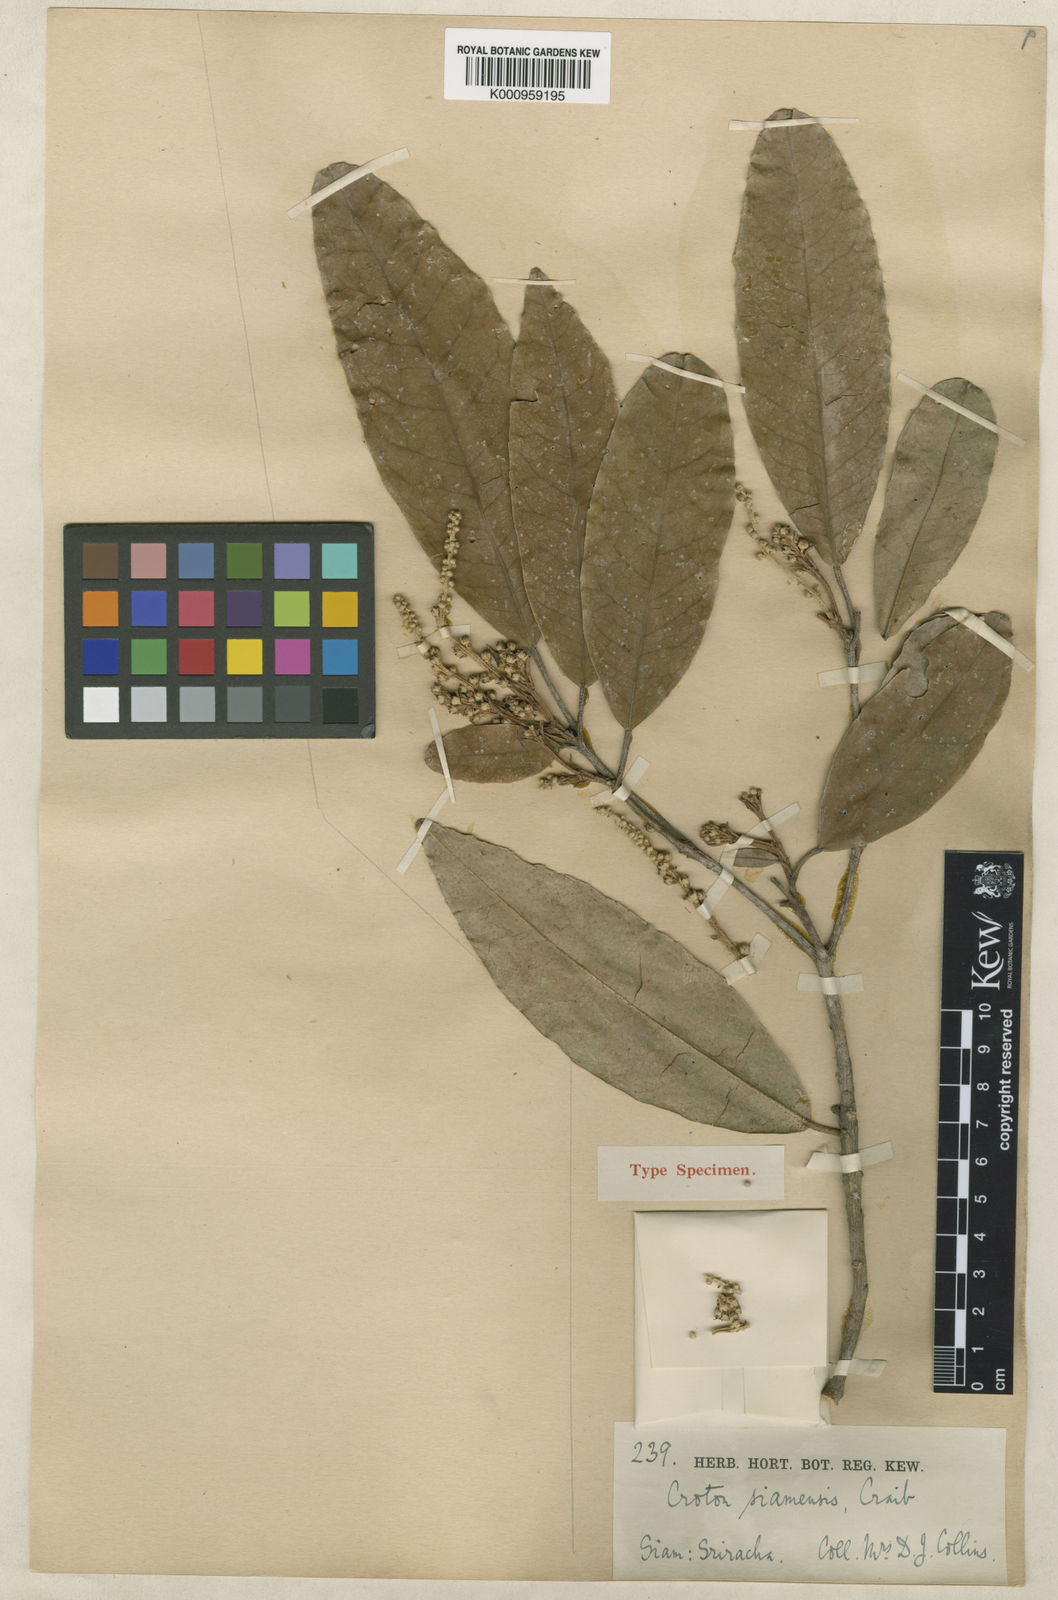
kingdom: Plantae
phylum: Tracheophyta
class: Magnoliopsida
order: Malpighiales
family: Euphorbiaceae
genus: Croton
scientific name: Croton robustus
